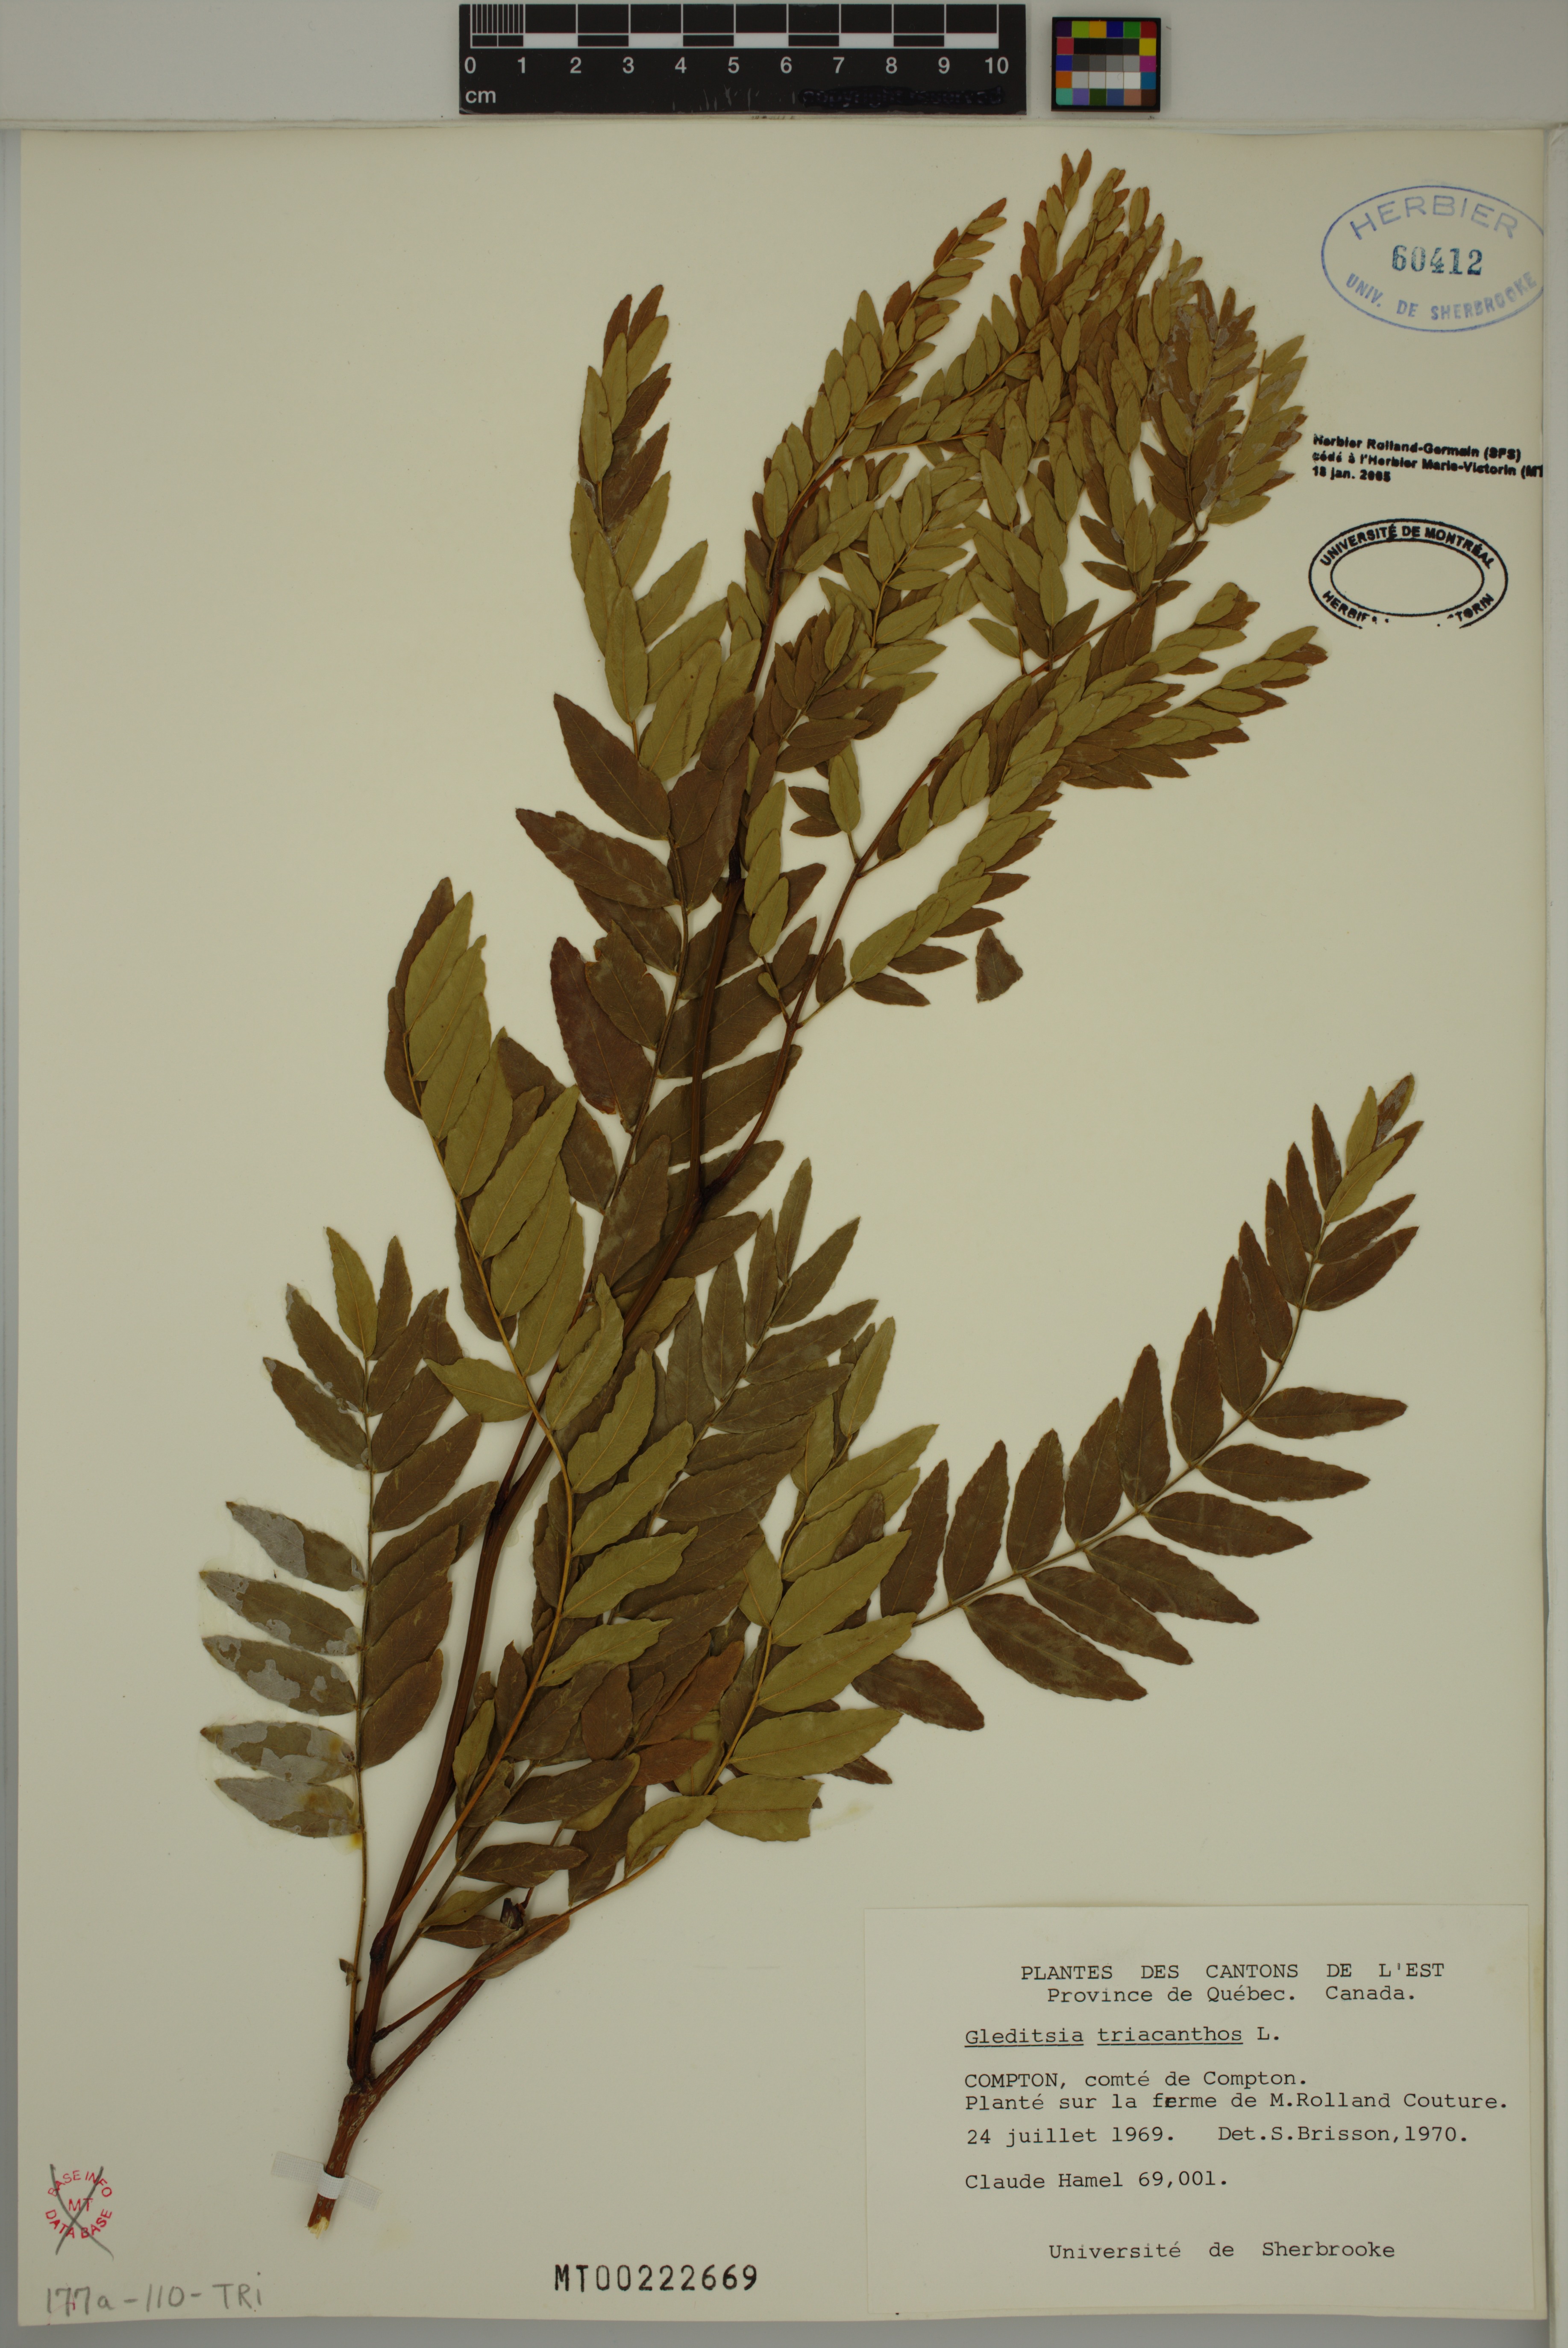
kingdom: Plantae
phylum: Tracheophyta
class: Magnoliopsida
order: Fabales
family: Fabaceae
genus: Gleditsia
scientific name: Gleditsia triacanthos
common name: Common honeylocust
